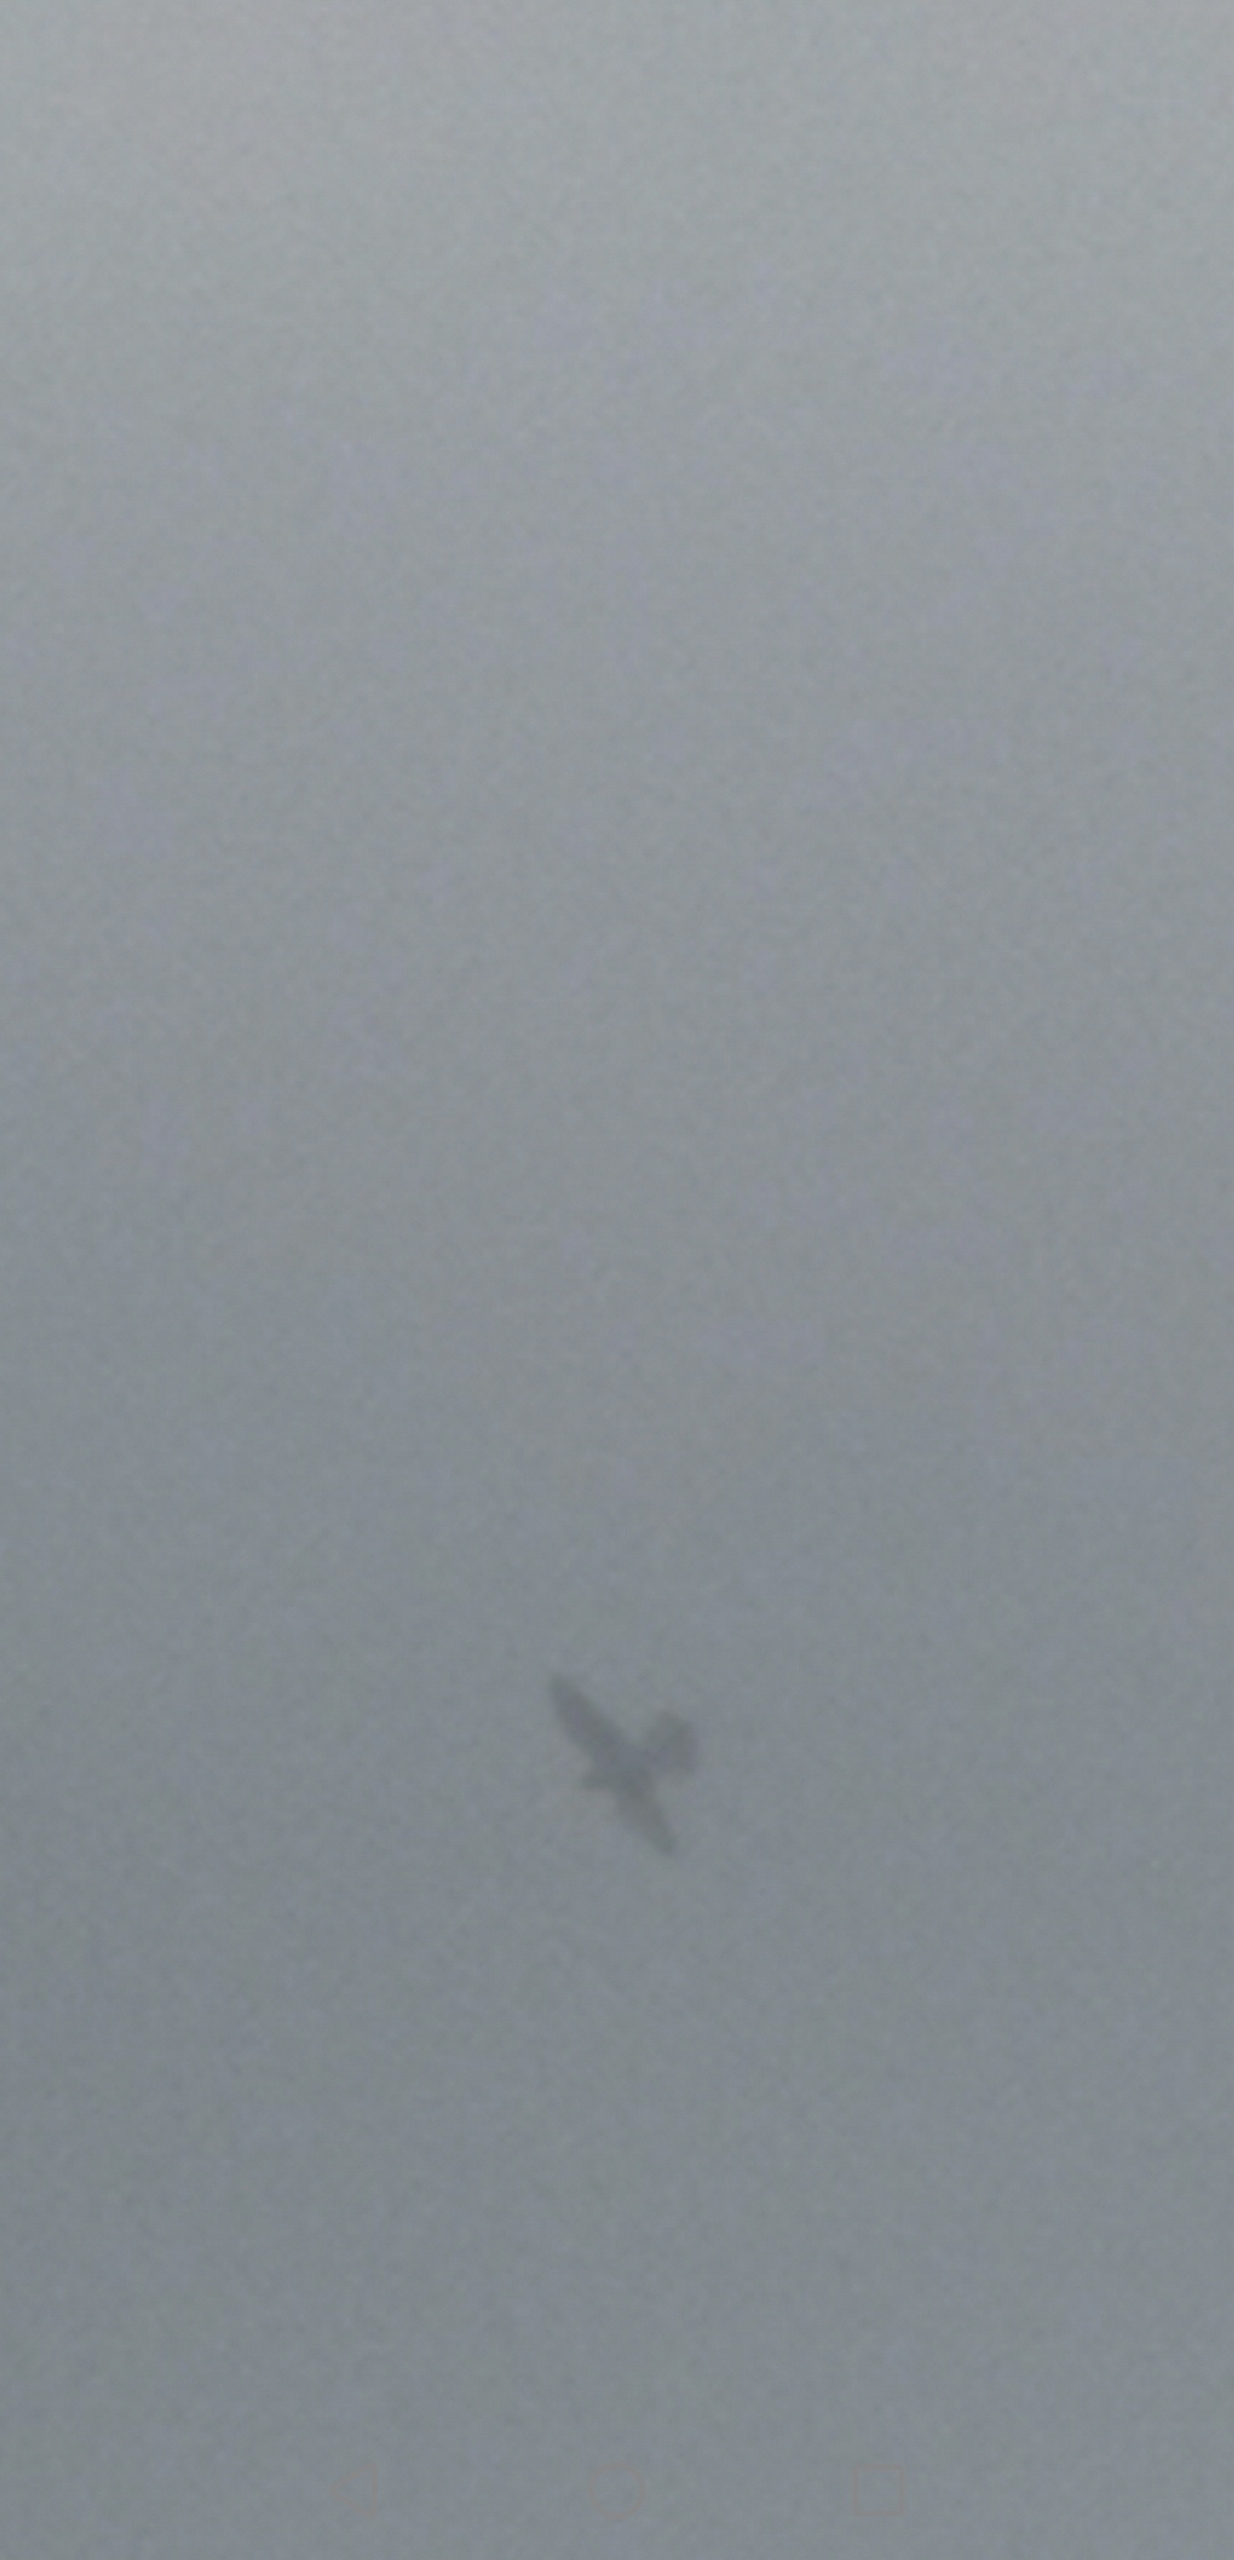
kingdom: Animalia
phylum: Chordata
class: Aves
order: Falconiformes
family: Falconidae
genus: Falco
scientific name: Falco tinnunculus
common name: Tårnfalk
